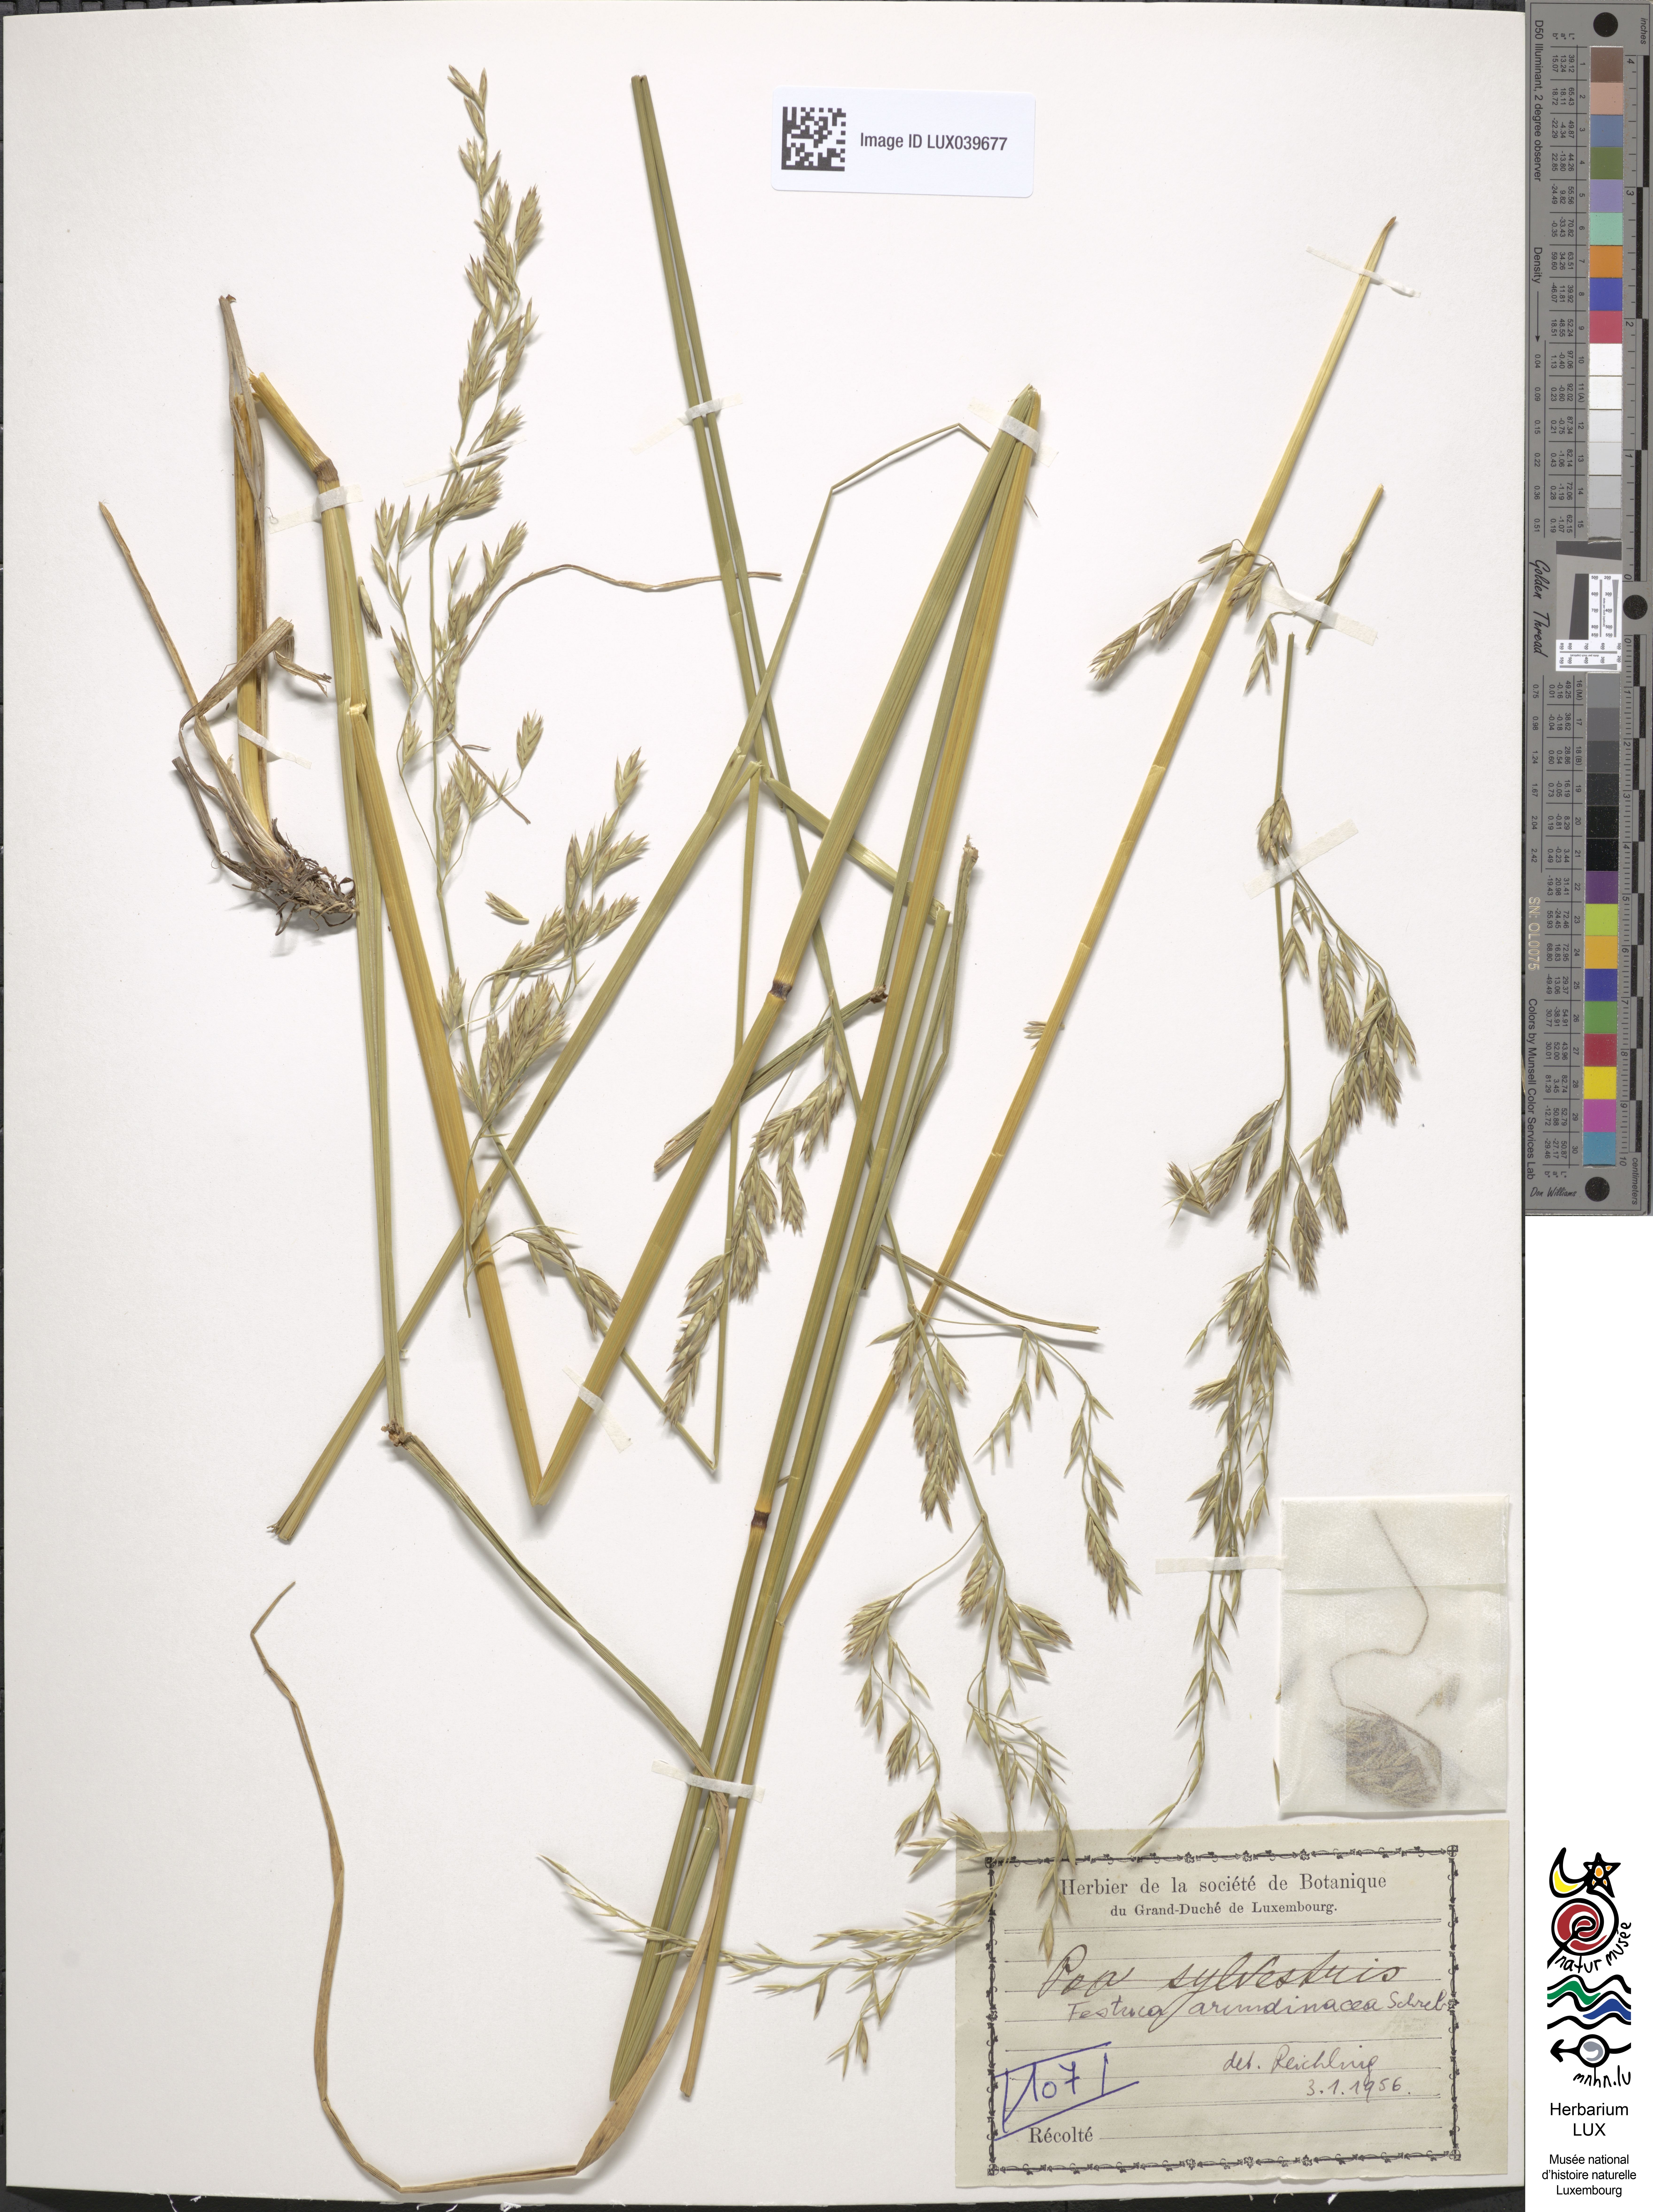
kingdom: Plantae
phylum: Tracheophyta
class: Polypodiopsida
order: Polypodiales
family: Athyriaceae
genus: Athyrium
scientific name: Athyrium filix-femina
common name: Lady fern
